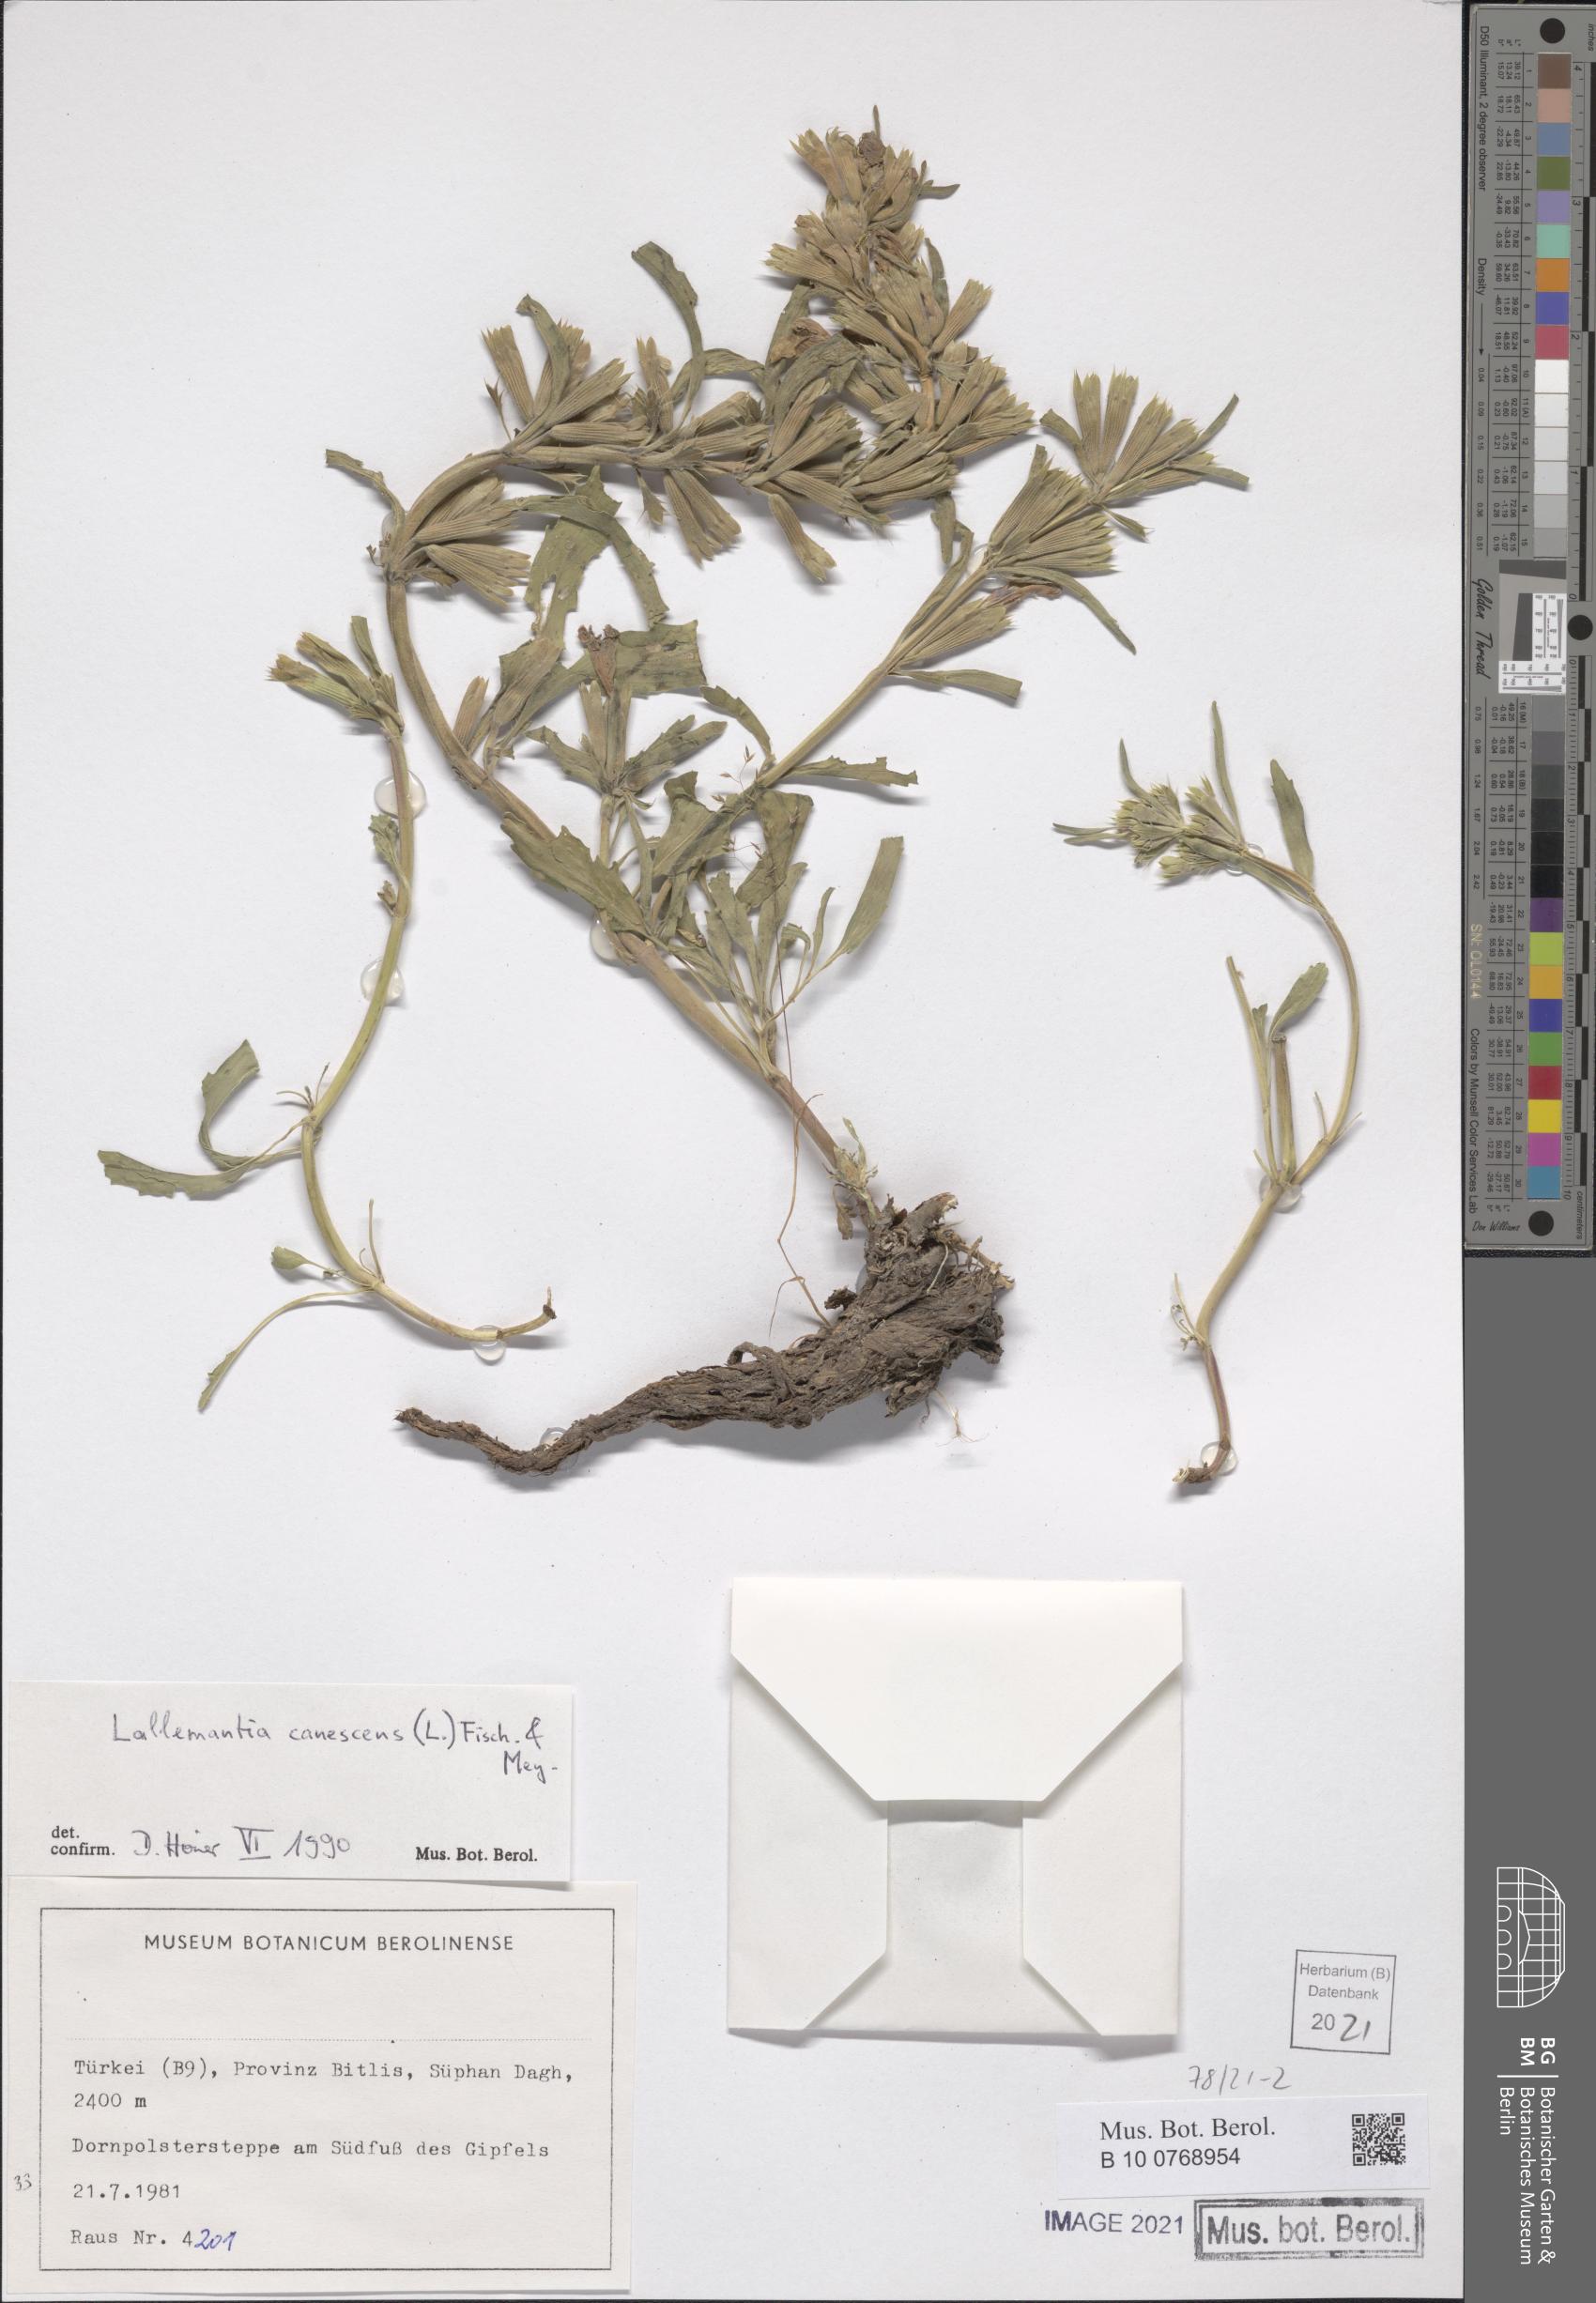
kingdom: Plantae
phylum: Tracheophyta
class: Magnoliopsida
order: Lamiales
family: Lamiaceae
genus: Lallemantia
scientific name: Lallemantia canescens
